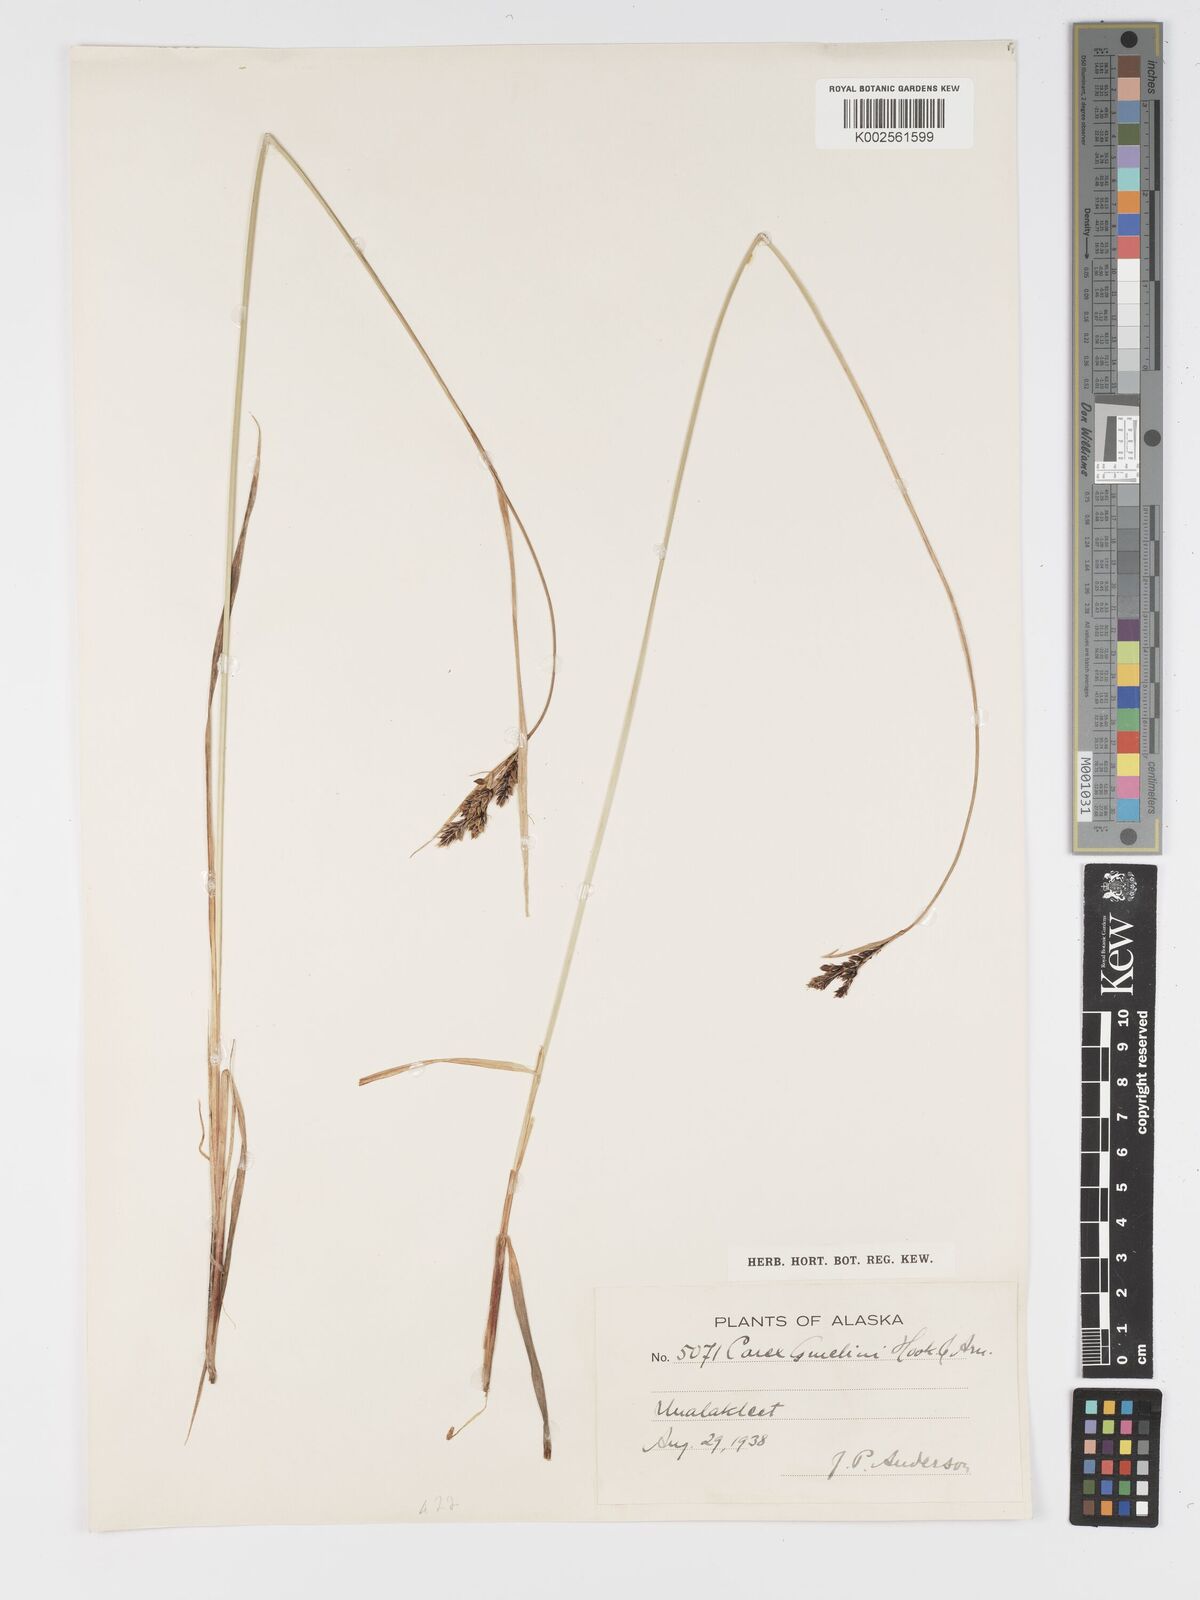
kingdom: Plantae
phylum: Tracheophyta
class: Liliopsida
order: Poales
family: Cyperaceae
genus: Carex
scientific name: Carex gmelinii
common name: Gmelin's sedge
